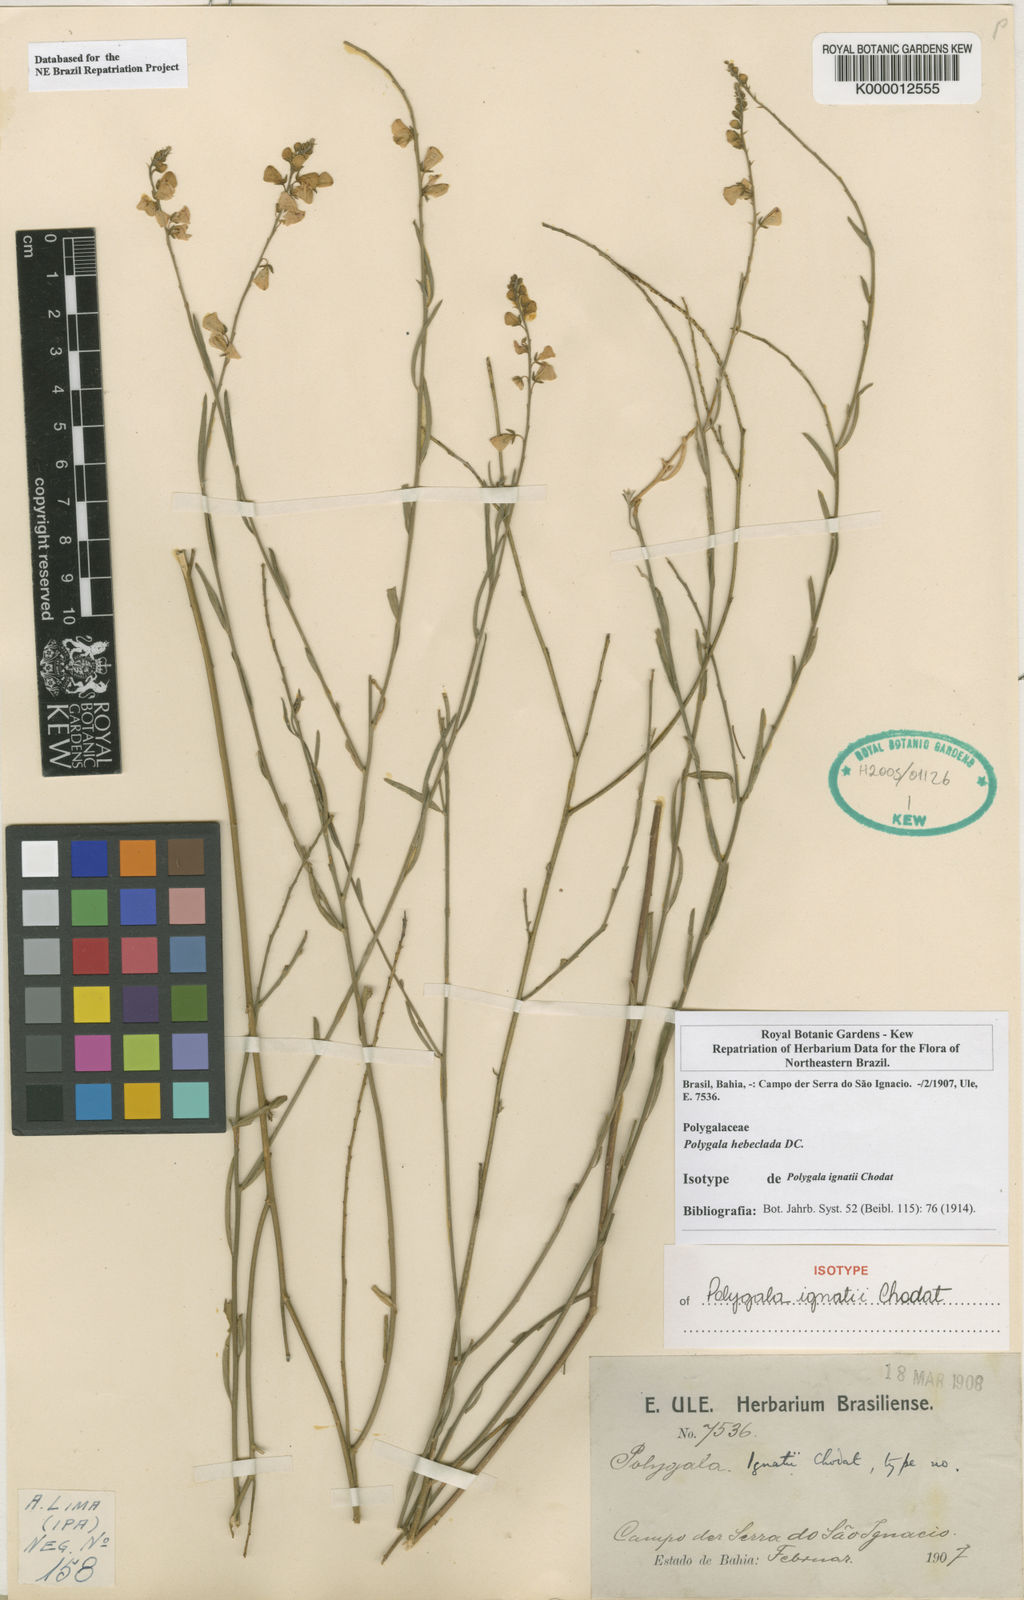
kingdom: Plantae
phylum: Tracheophyta
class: Magnoliopsida
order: Fabales
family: Polygalaceae
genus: Asemeia
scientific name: Asemeia ignatii
